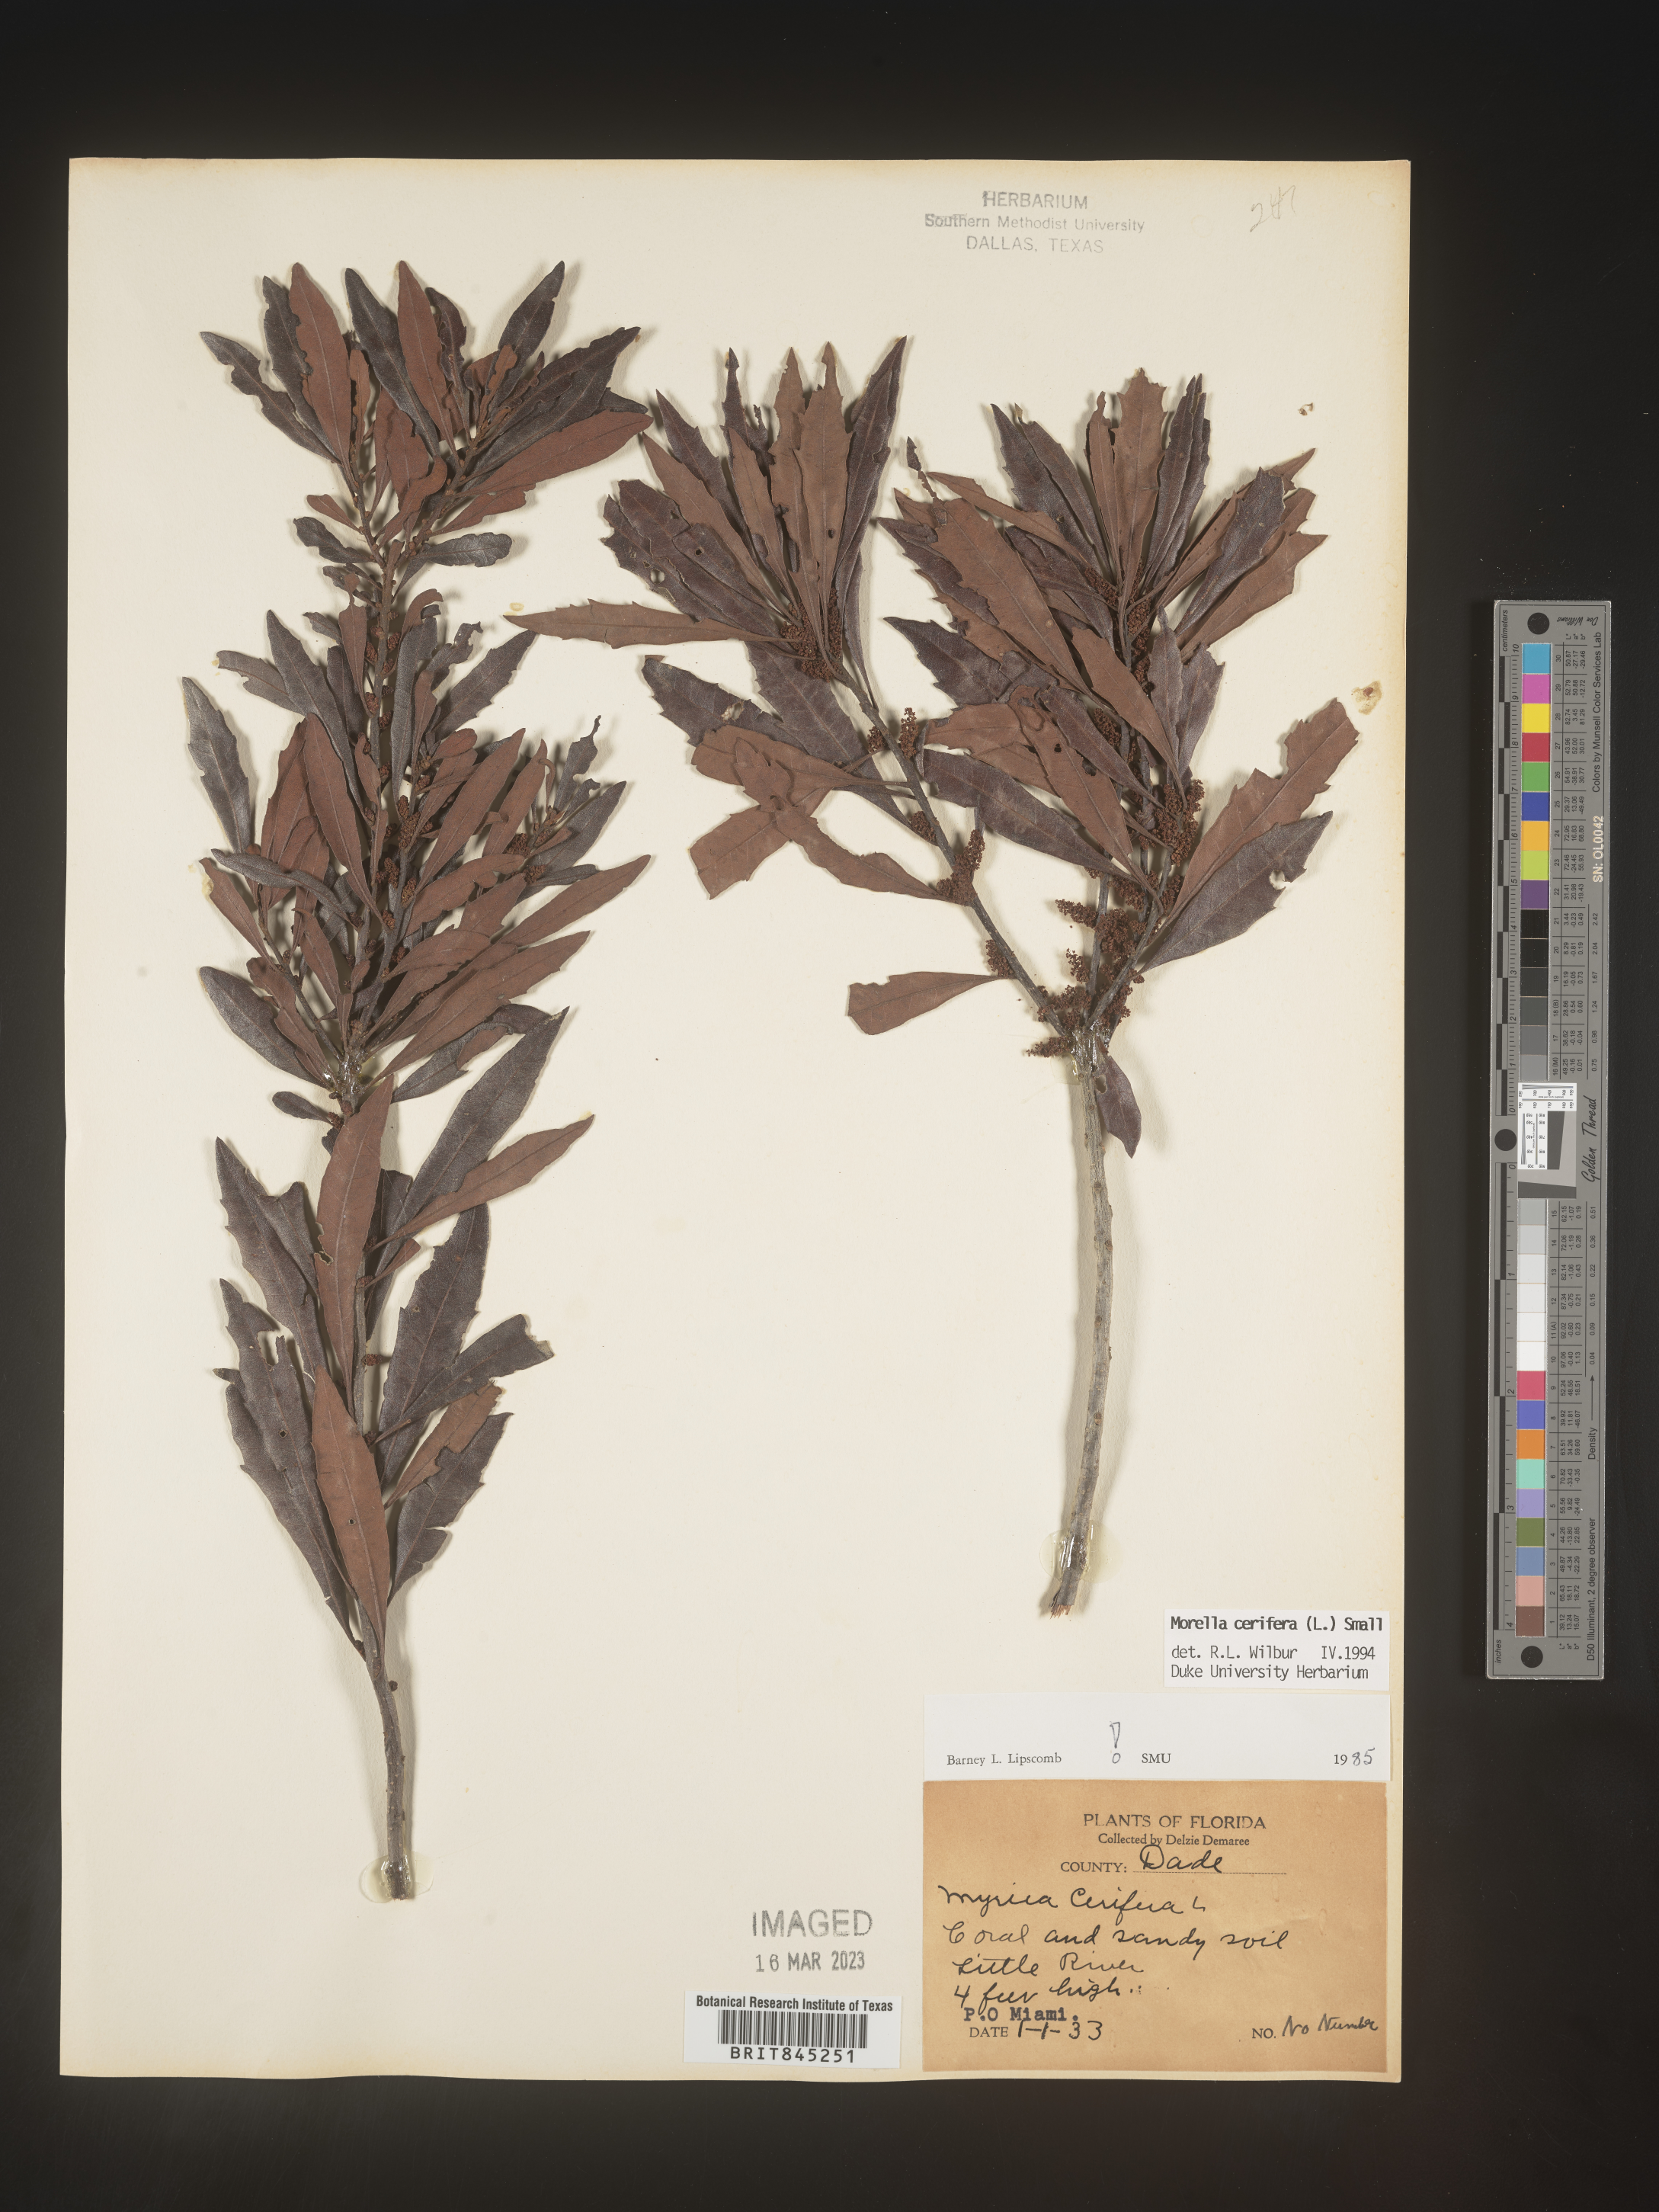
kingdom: Plantae
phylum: Tracheophyta
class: Magnoliopsida
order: Fagales
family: Myricaceae
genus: Morella
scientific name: Morella cerifera
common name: Wax myrtle
